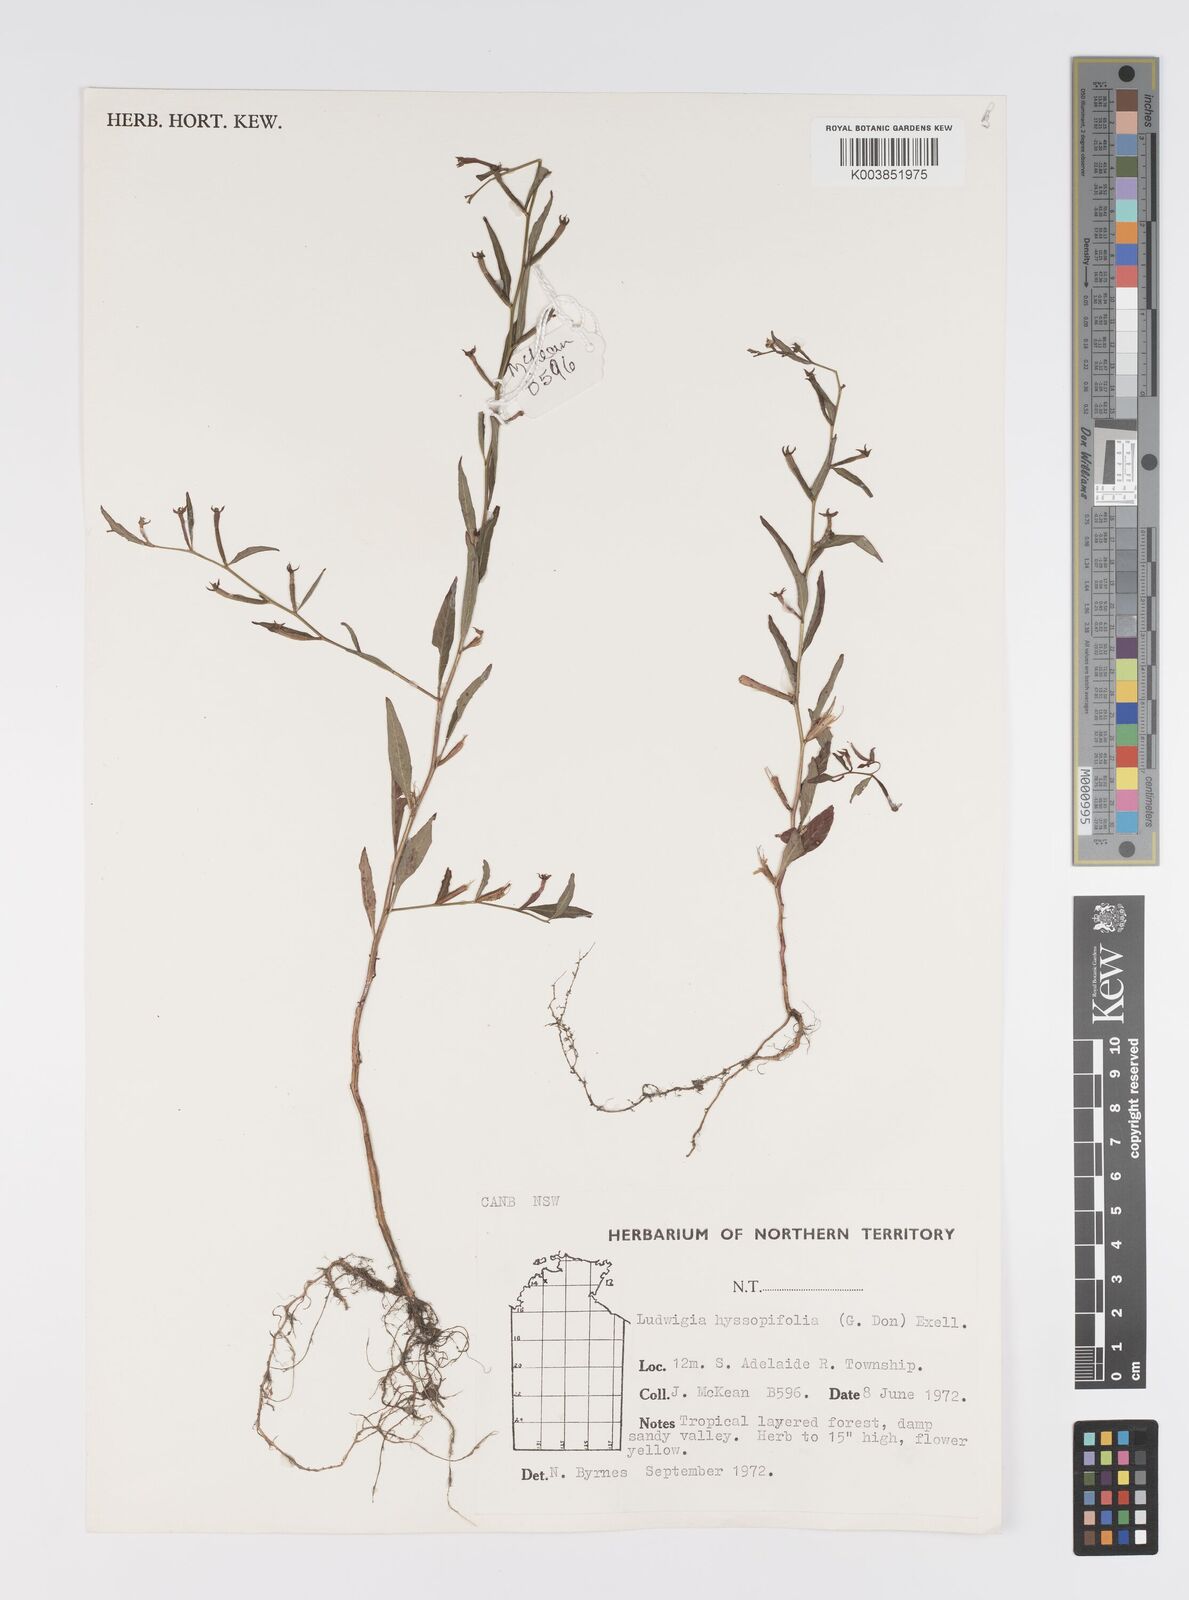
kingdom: Plantae
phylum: Tracheophyta
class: Magnoliopsida
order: Myrtales
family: Onagraceae
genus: Ludwigia
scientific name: Ludwigia hyssopifolia
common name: Linear leaf water primrose
